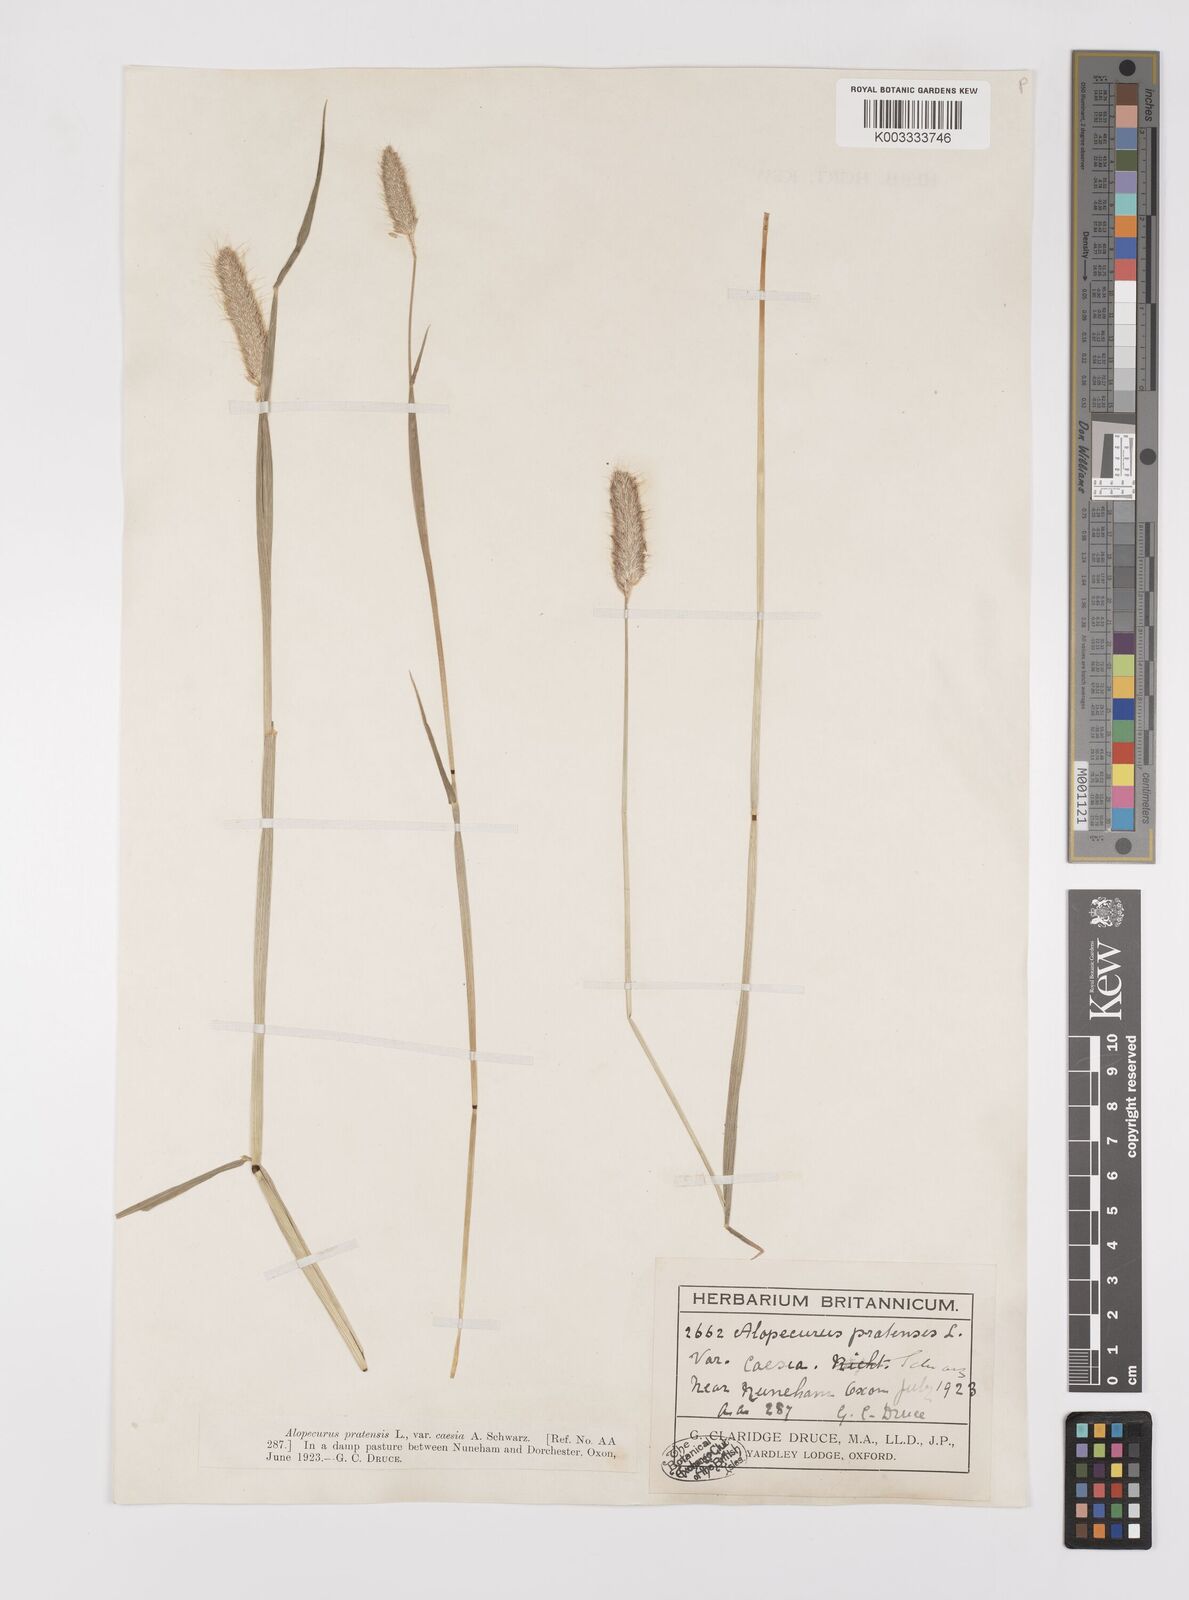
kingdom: Plantae
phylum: Tracheophyta
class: Liliopsida
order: Poales
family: Poaceae
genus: Alopecurus
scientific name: Alopecurus pratensis
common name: Meadow foxtail
